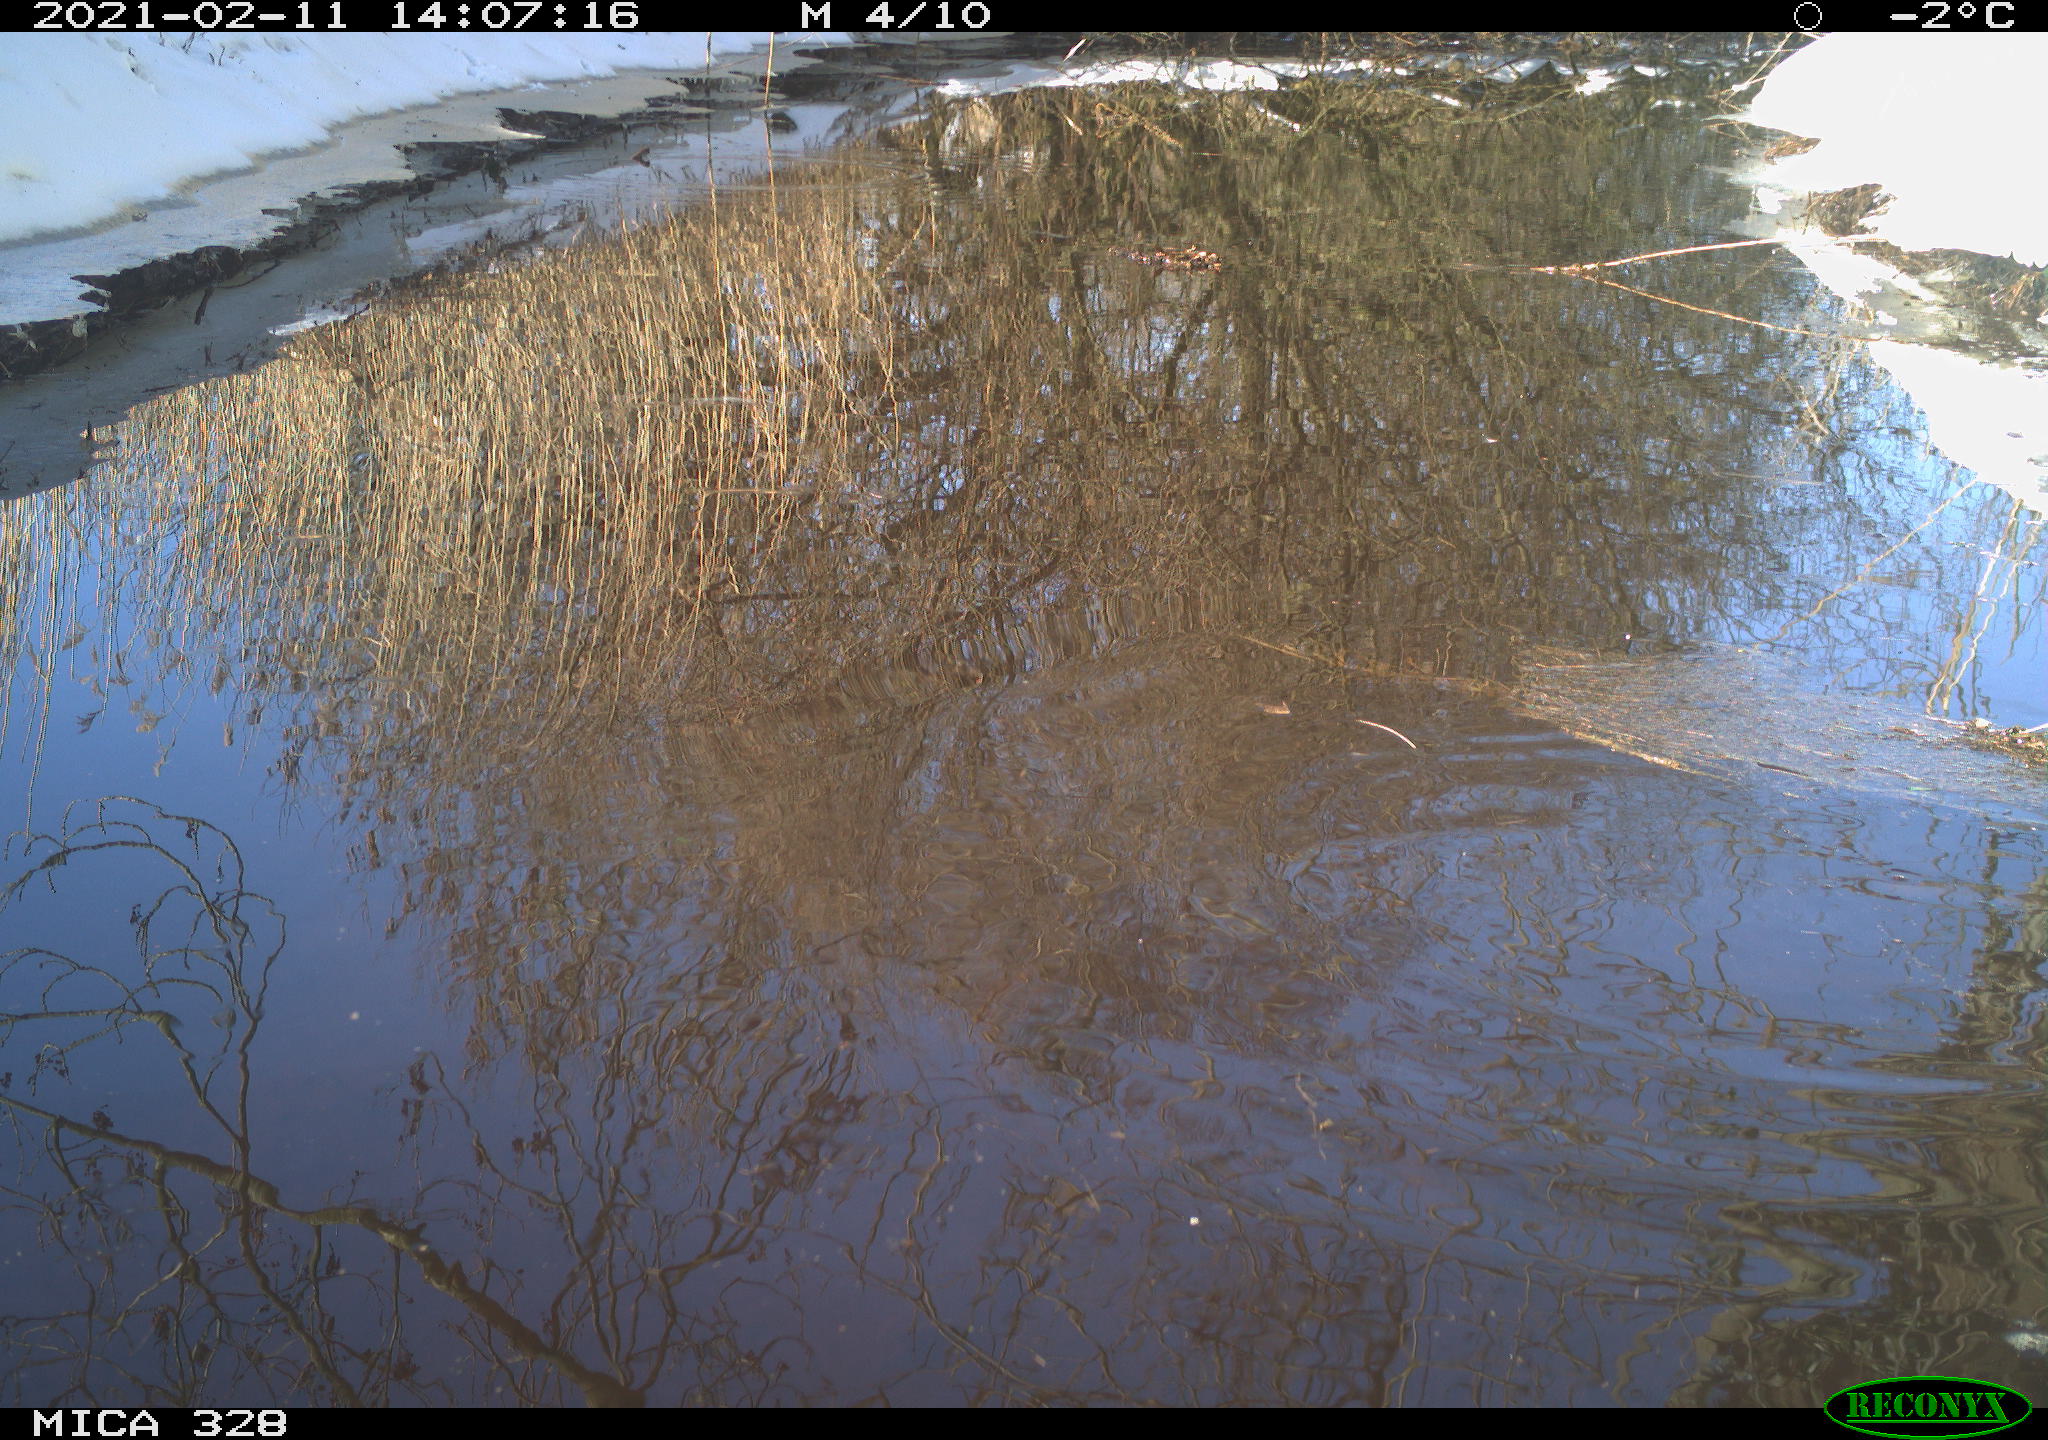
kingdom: Animalia
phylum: Chordata
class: Aves
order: Passeriformes
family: Muscicapidae
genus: Erithacus
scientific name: Erithacus rubecula
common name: European robin
